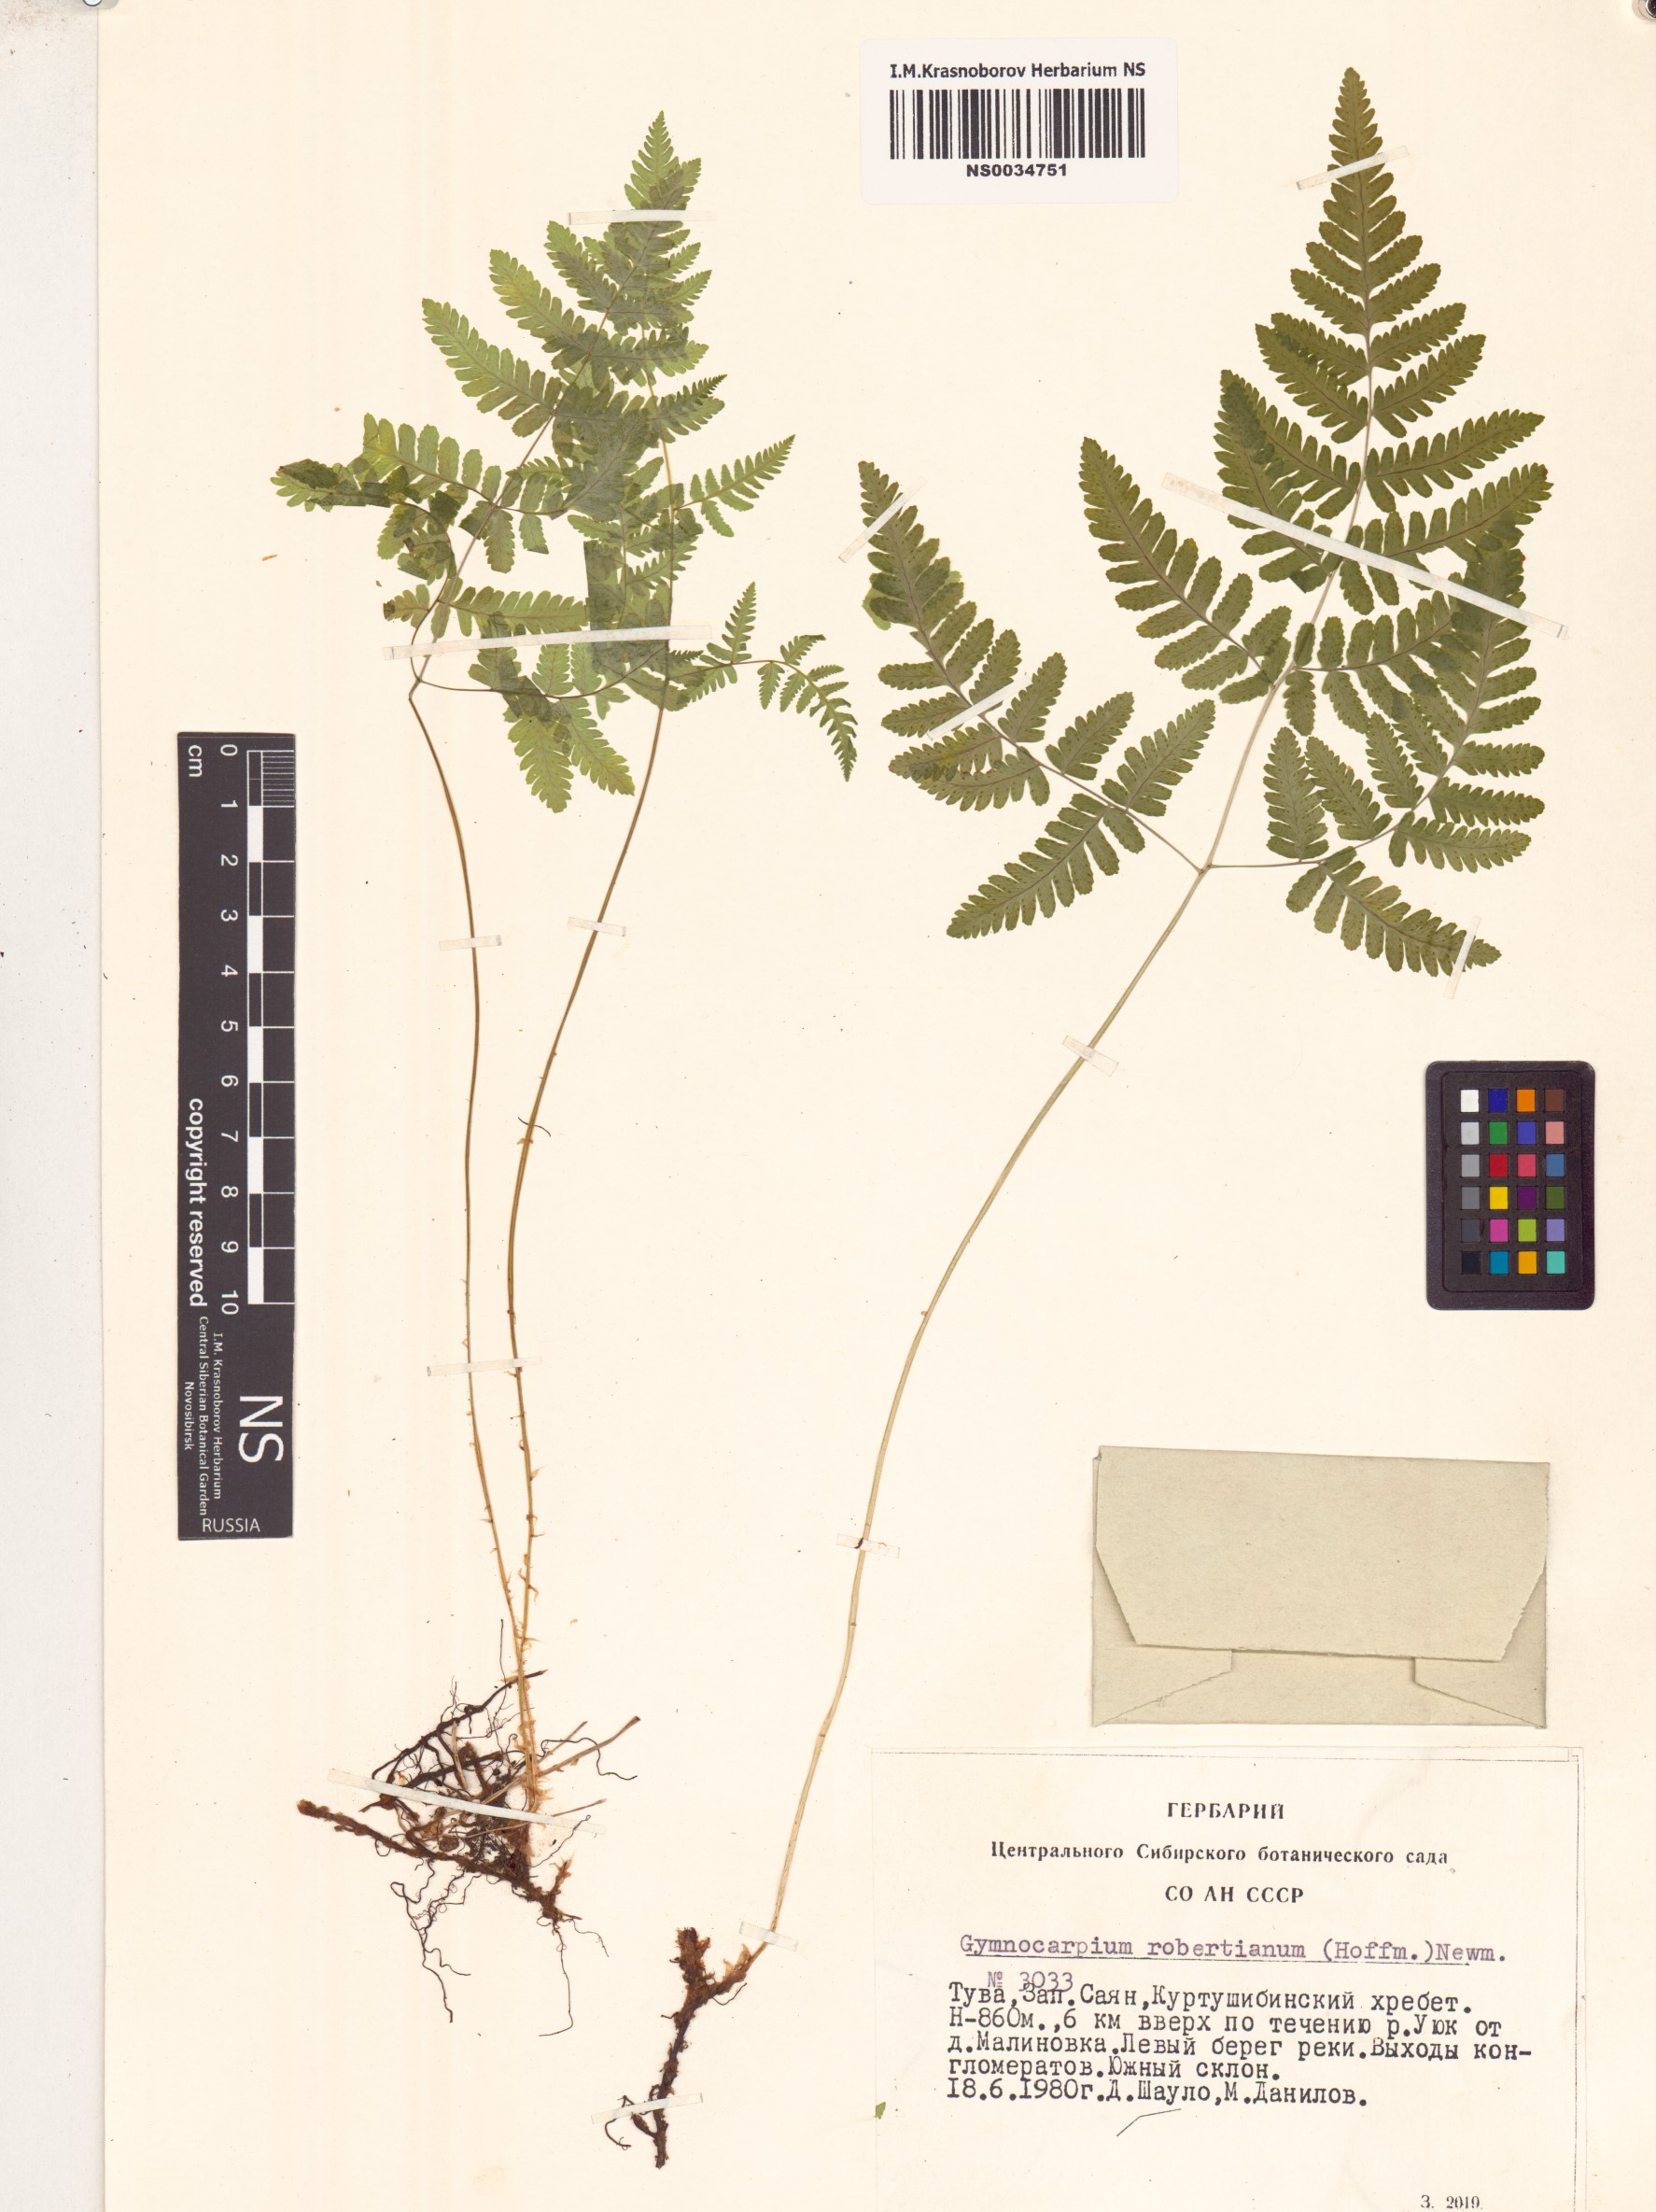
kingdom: Plantae
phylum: Tracheophyta
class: Polypodiopsida
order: Polypodiales
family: Cystopteridaceae
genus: Gymnocarpium
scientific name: Gymnocarpium robertianum
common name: Limestone fern
